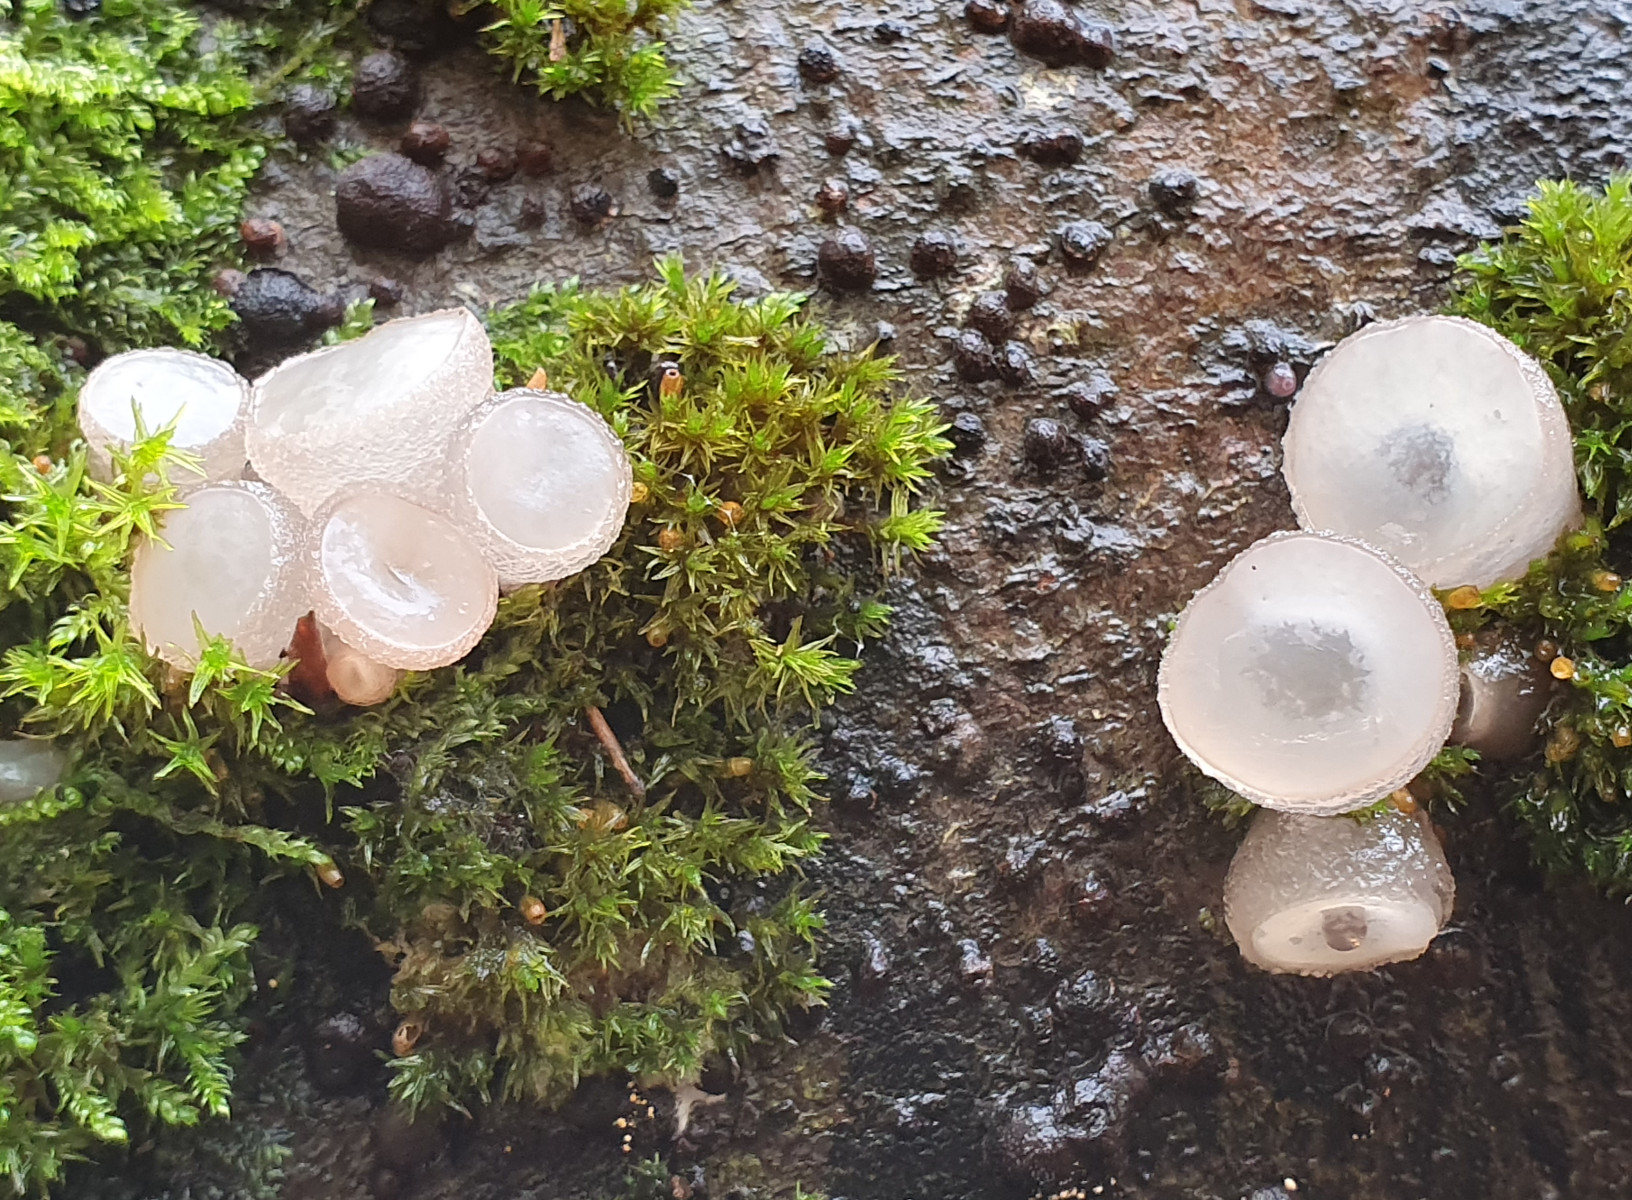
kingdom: Fungi
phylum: Ascomycota
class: Leotiomycetes
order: Helotiales
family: Gelatinodiscaceae
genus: Neobulgaria
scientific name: Neobulgaria pura
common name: bleg bævreskive
